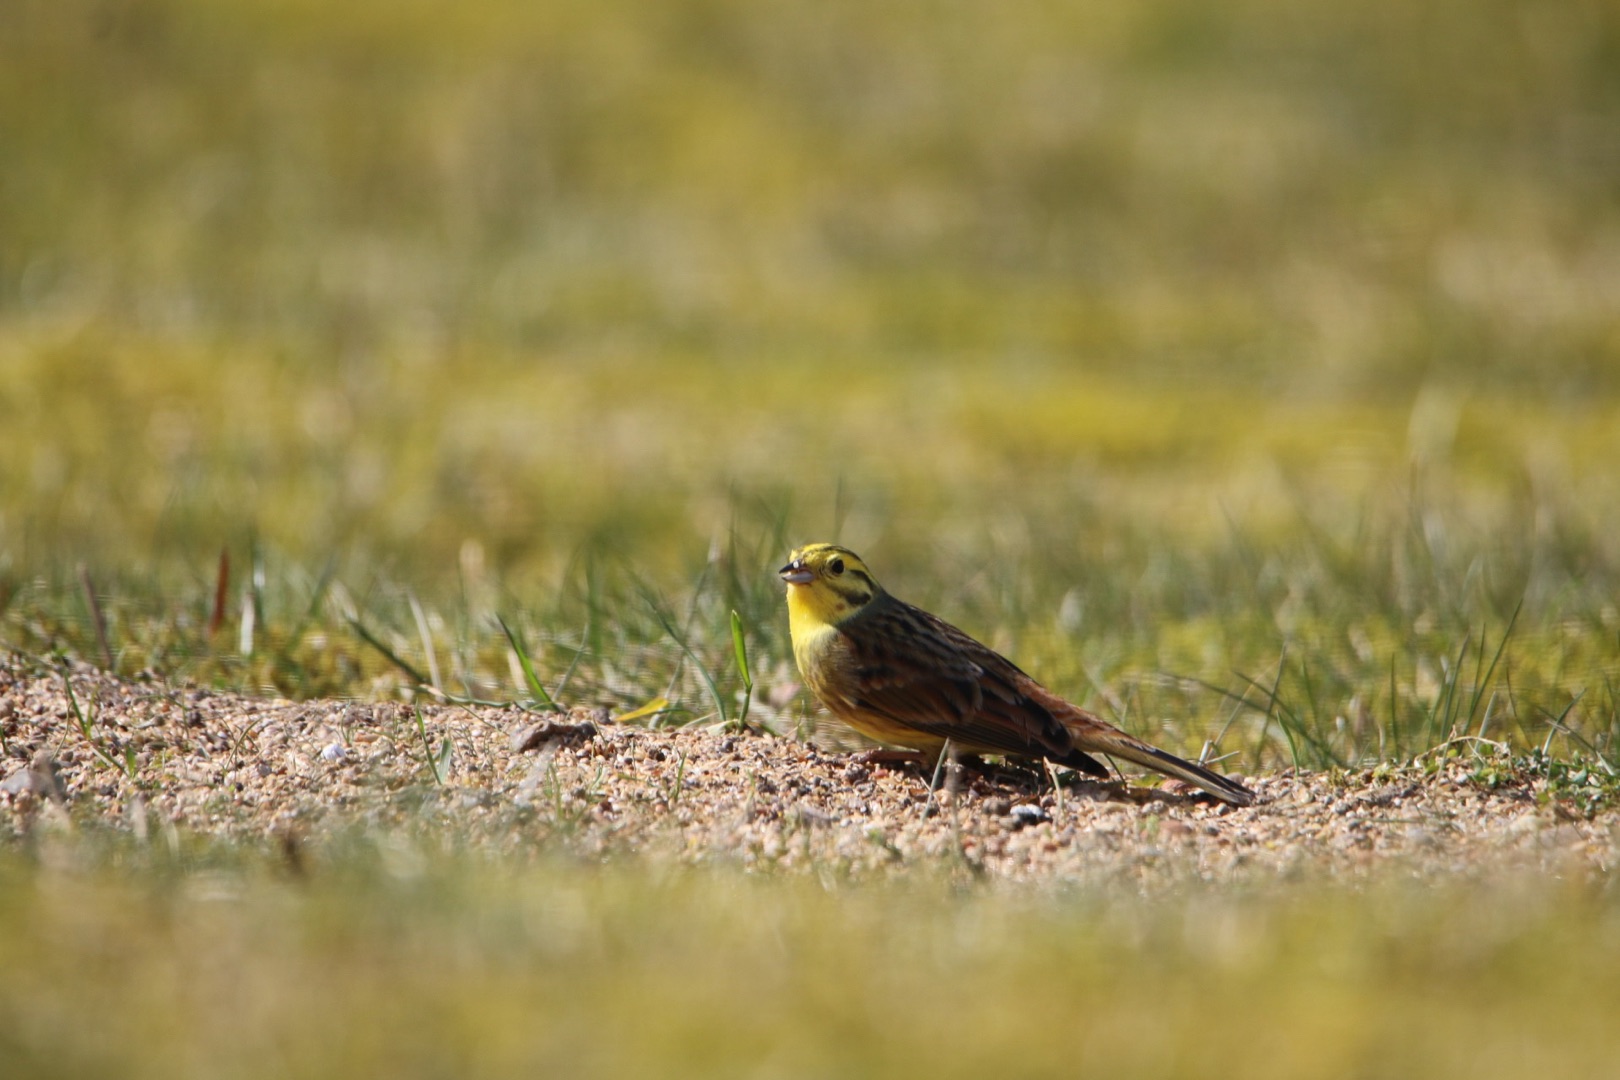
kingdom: Animalia
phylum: Chordata
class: Aves
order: Passeriformes
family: Emberizidae
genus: Emberiza
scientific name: Emberiza citrinella
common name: Gulspurv
